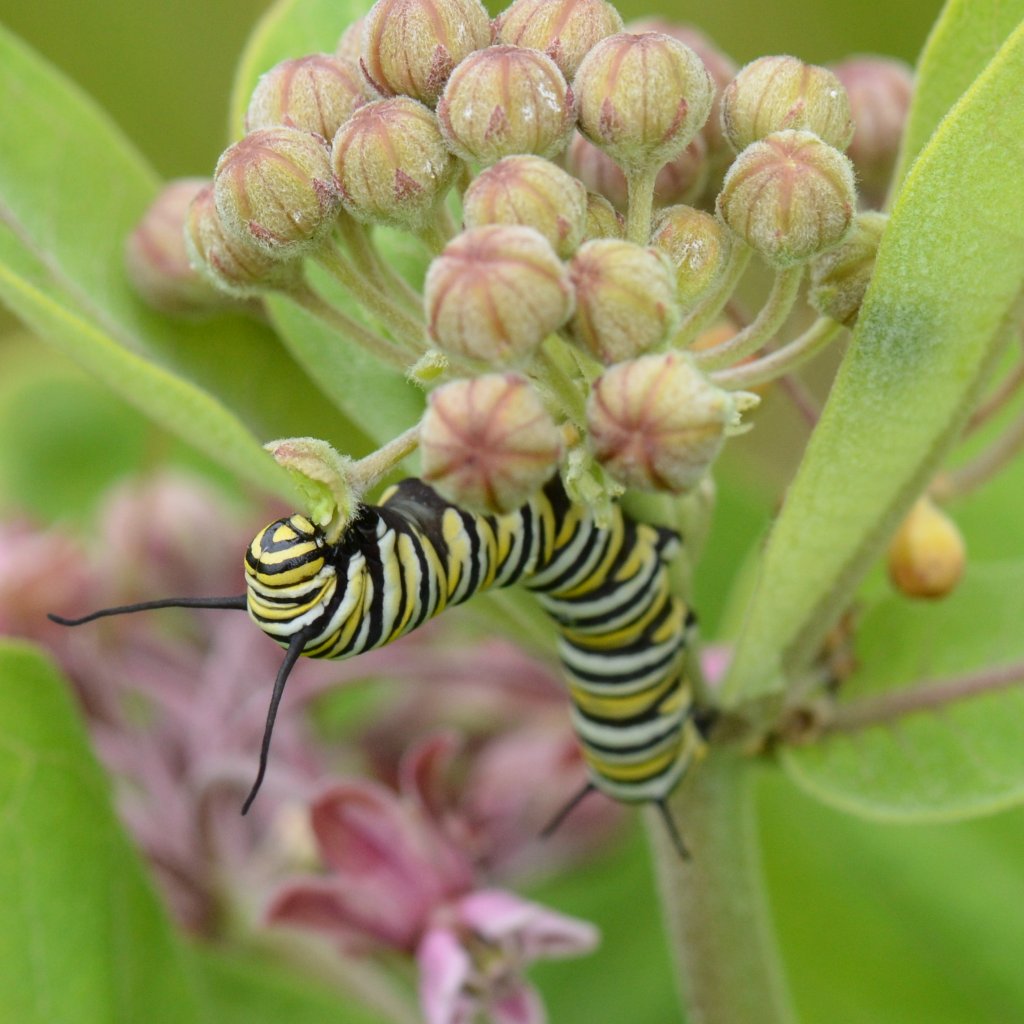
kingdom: Animalia
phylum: Arthropoda
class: Insecta
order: Lepidoptera
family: Nymphalidae
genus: Danaus
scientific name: Danaus plexippus
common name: Monarch
